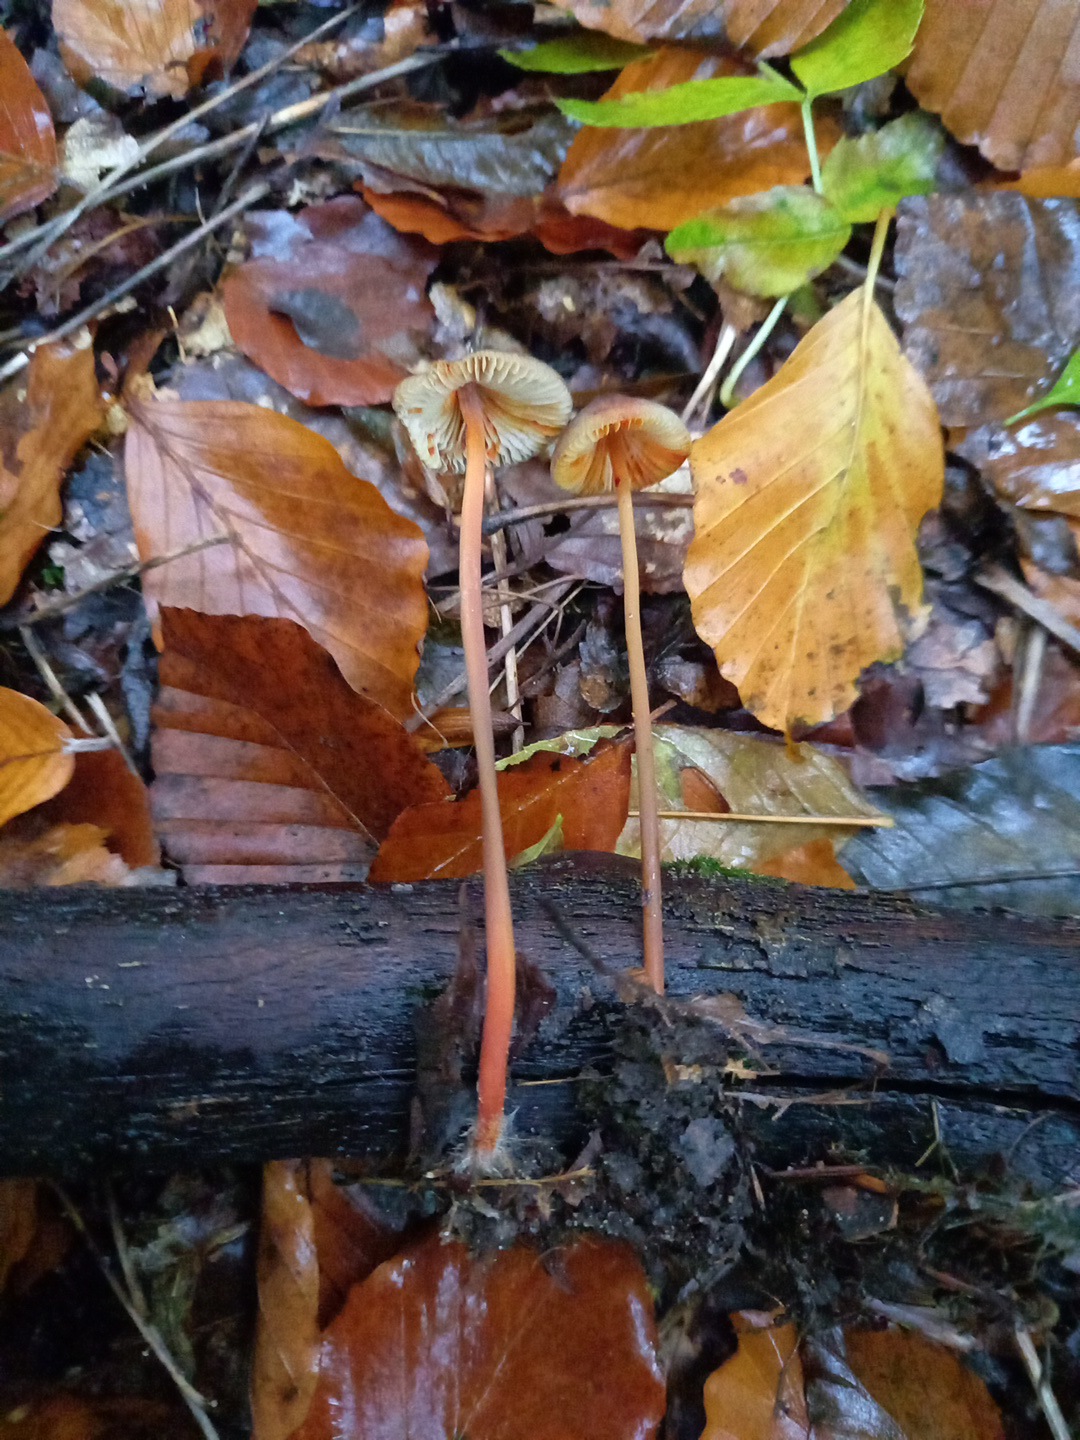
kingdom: Fungi
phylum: Basidiomycota
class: Agaricomycetes
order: Agaricales
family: Mycenaceae
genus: Mycena
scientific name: Mycena crocata
